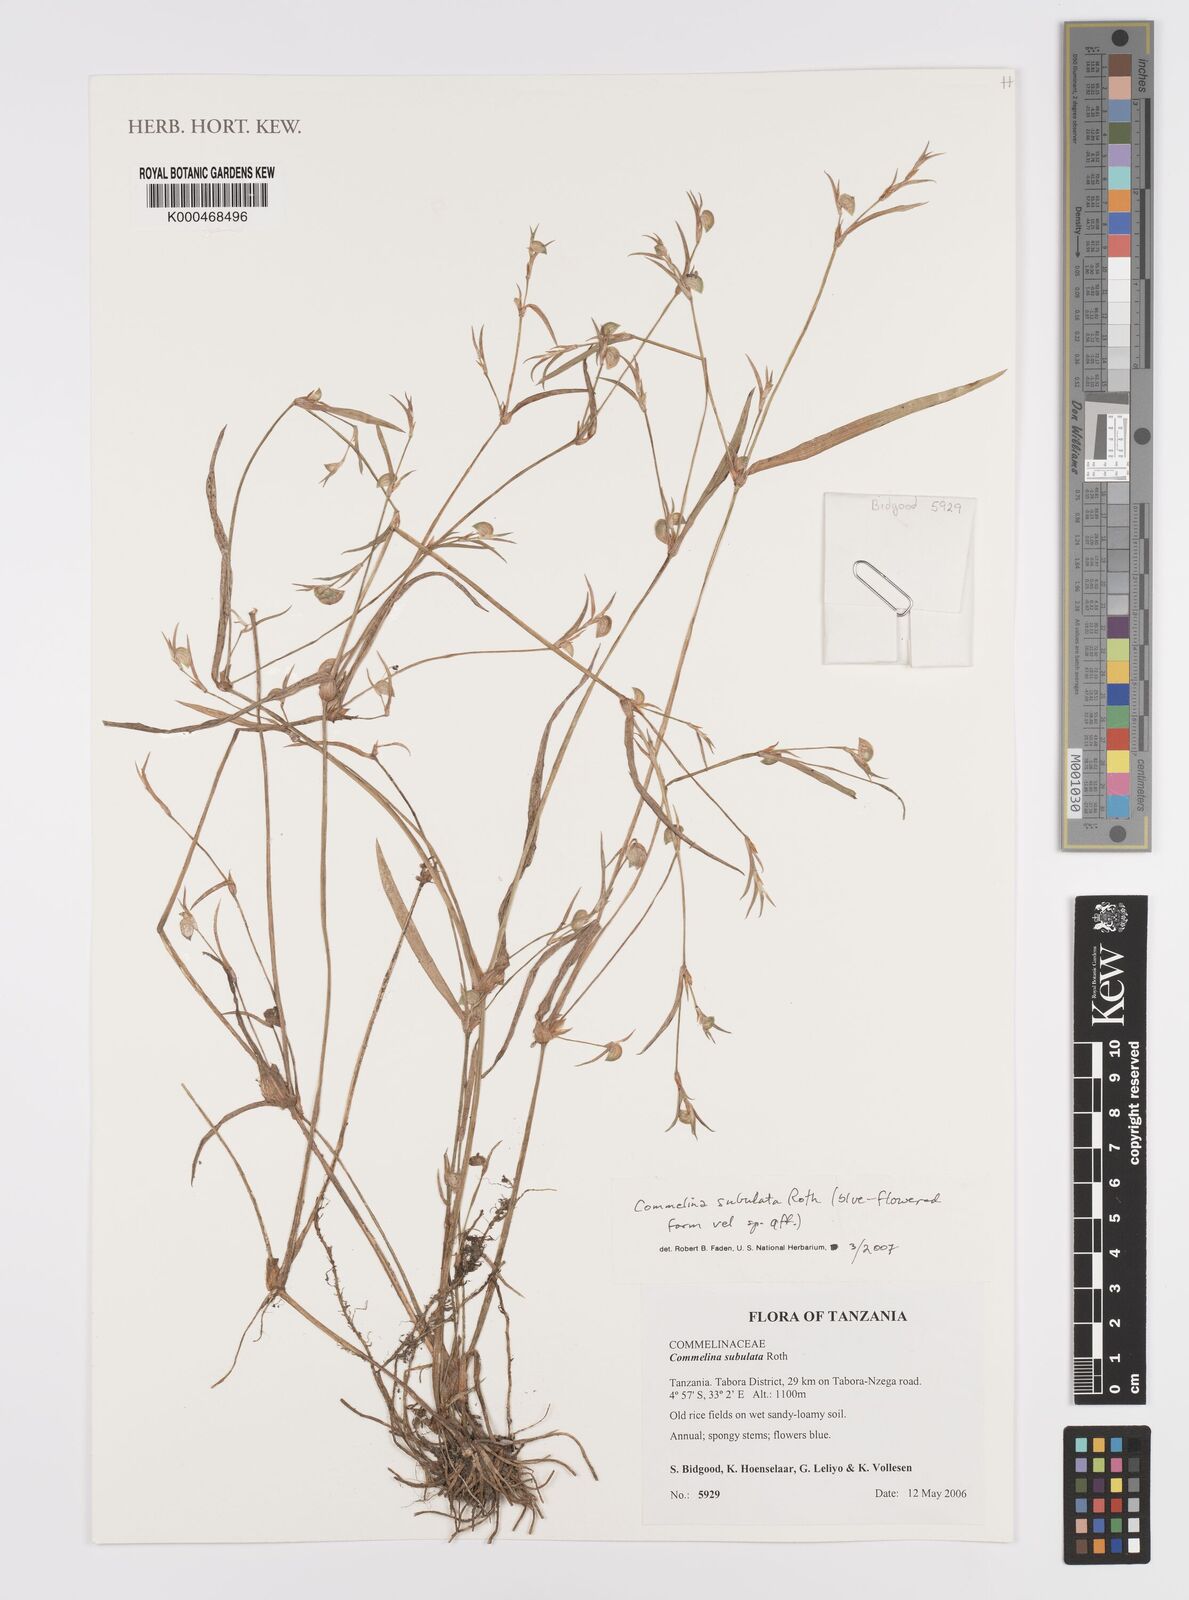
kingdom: Plantae
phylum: Tracheophyta
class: Liliopsida
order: Commelinales
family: Commelinaceae
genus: Commelina
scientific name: Commelina subulata
